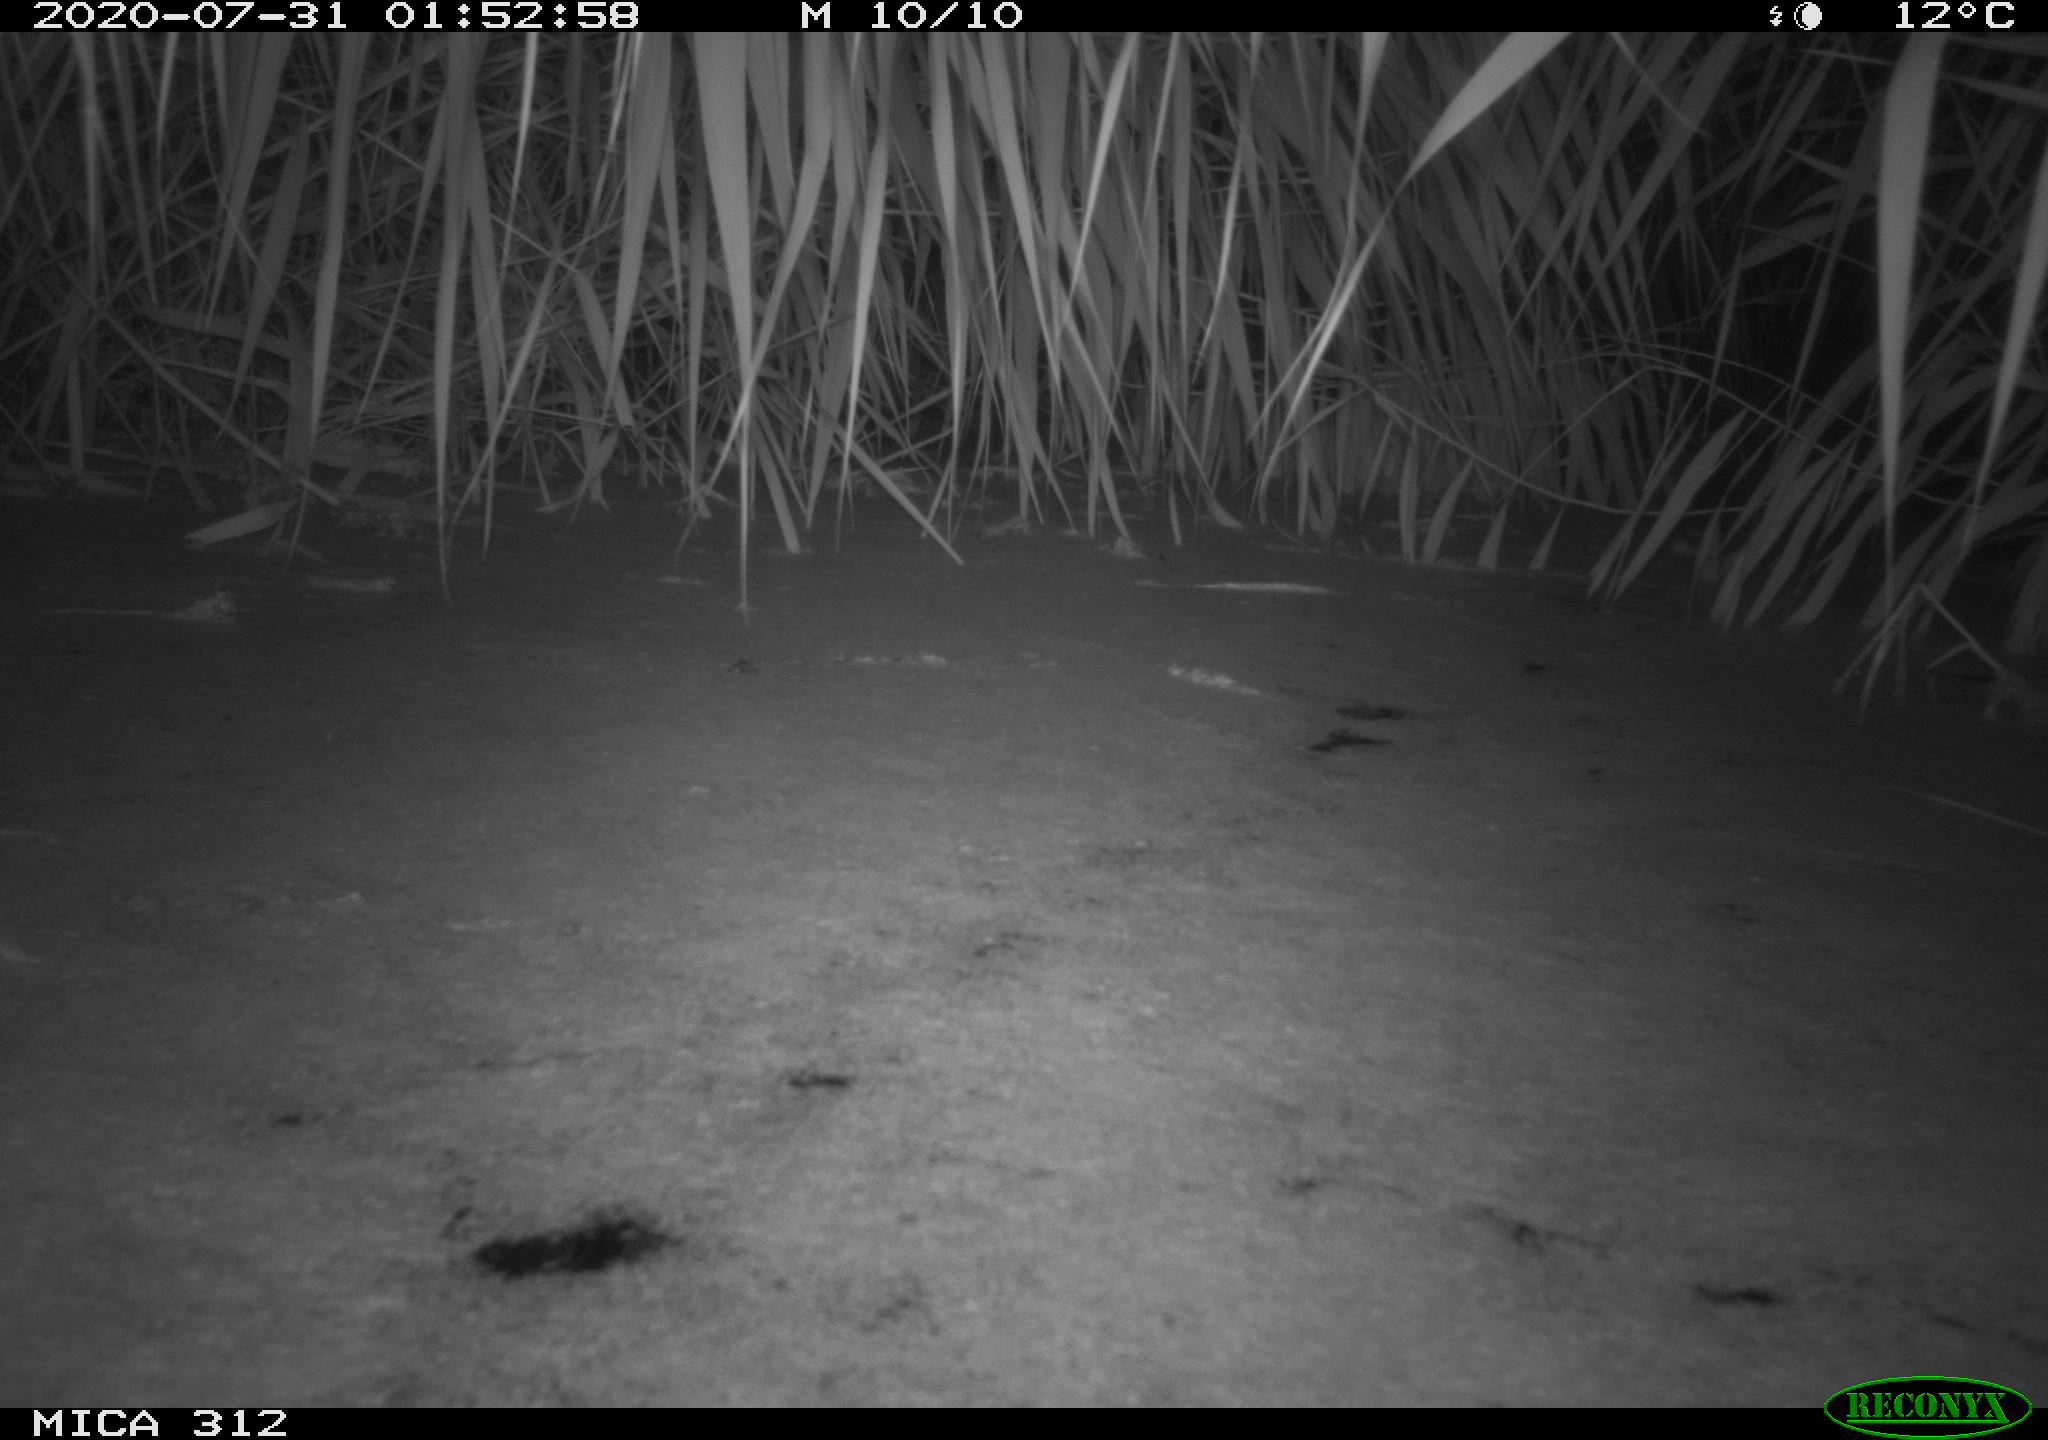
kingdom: Animalia
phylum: Chordata
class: Mammalia
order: Rodentia
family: Cricetidae
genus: Ondatra
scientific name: Ondatra zibethicus
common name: Muskrat
